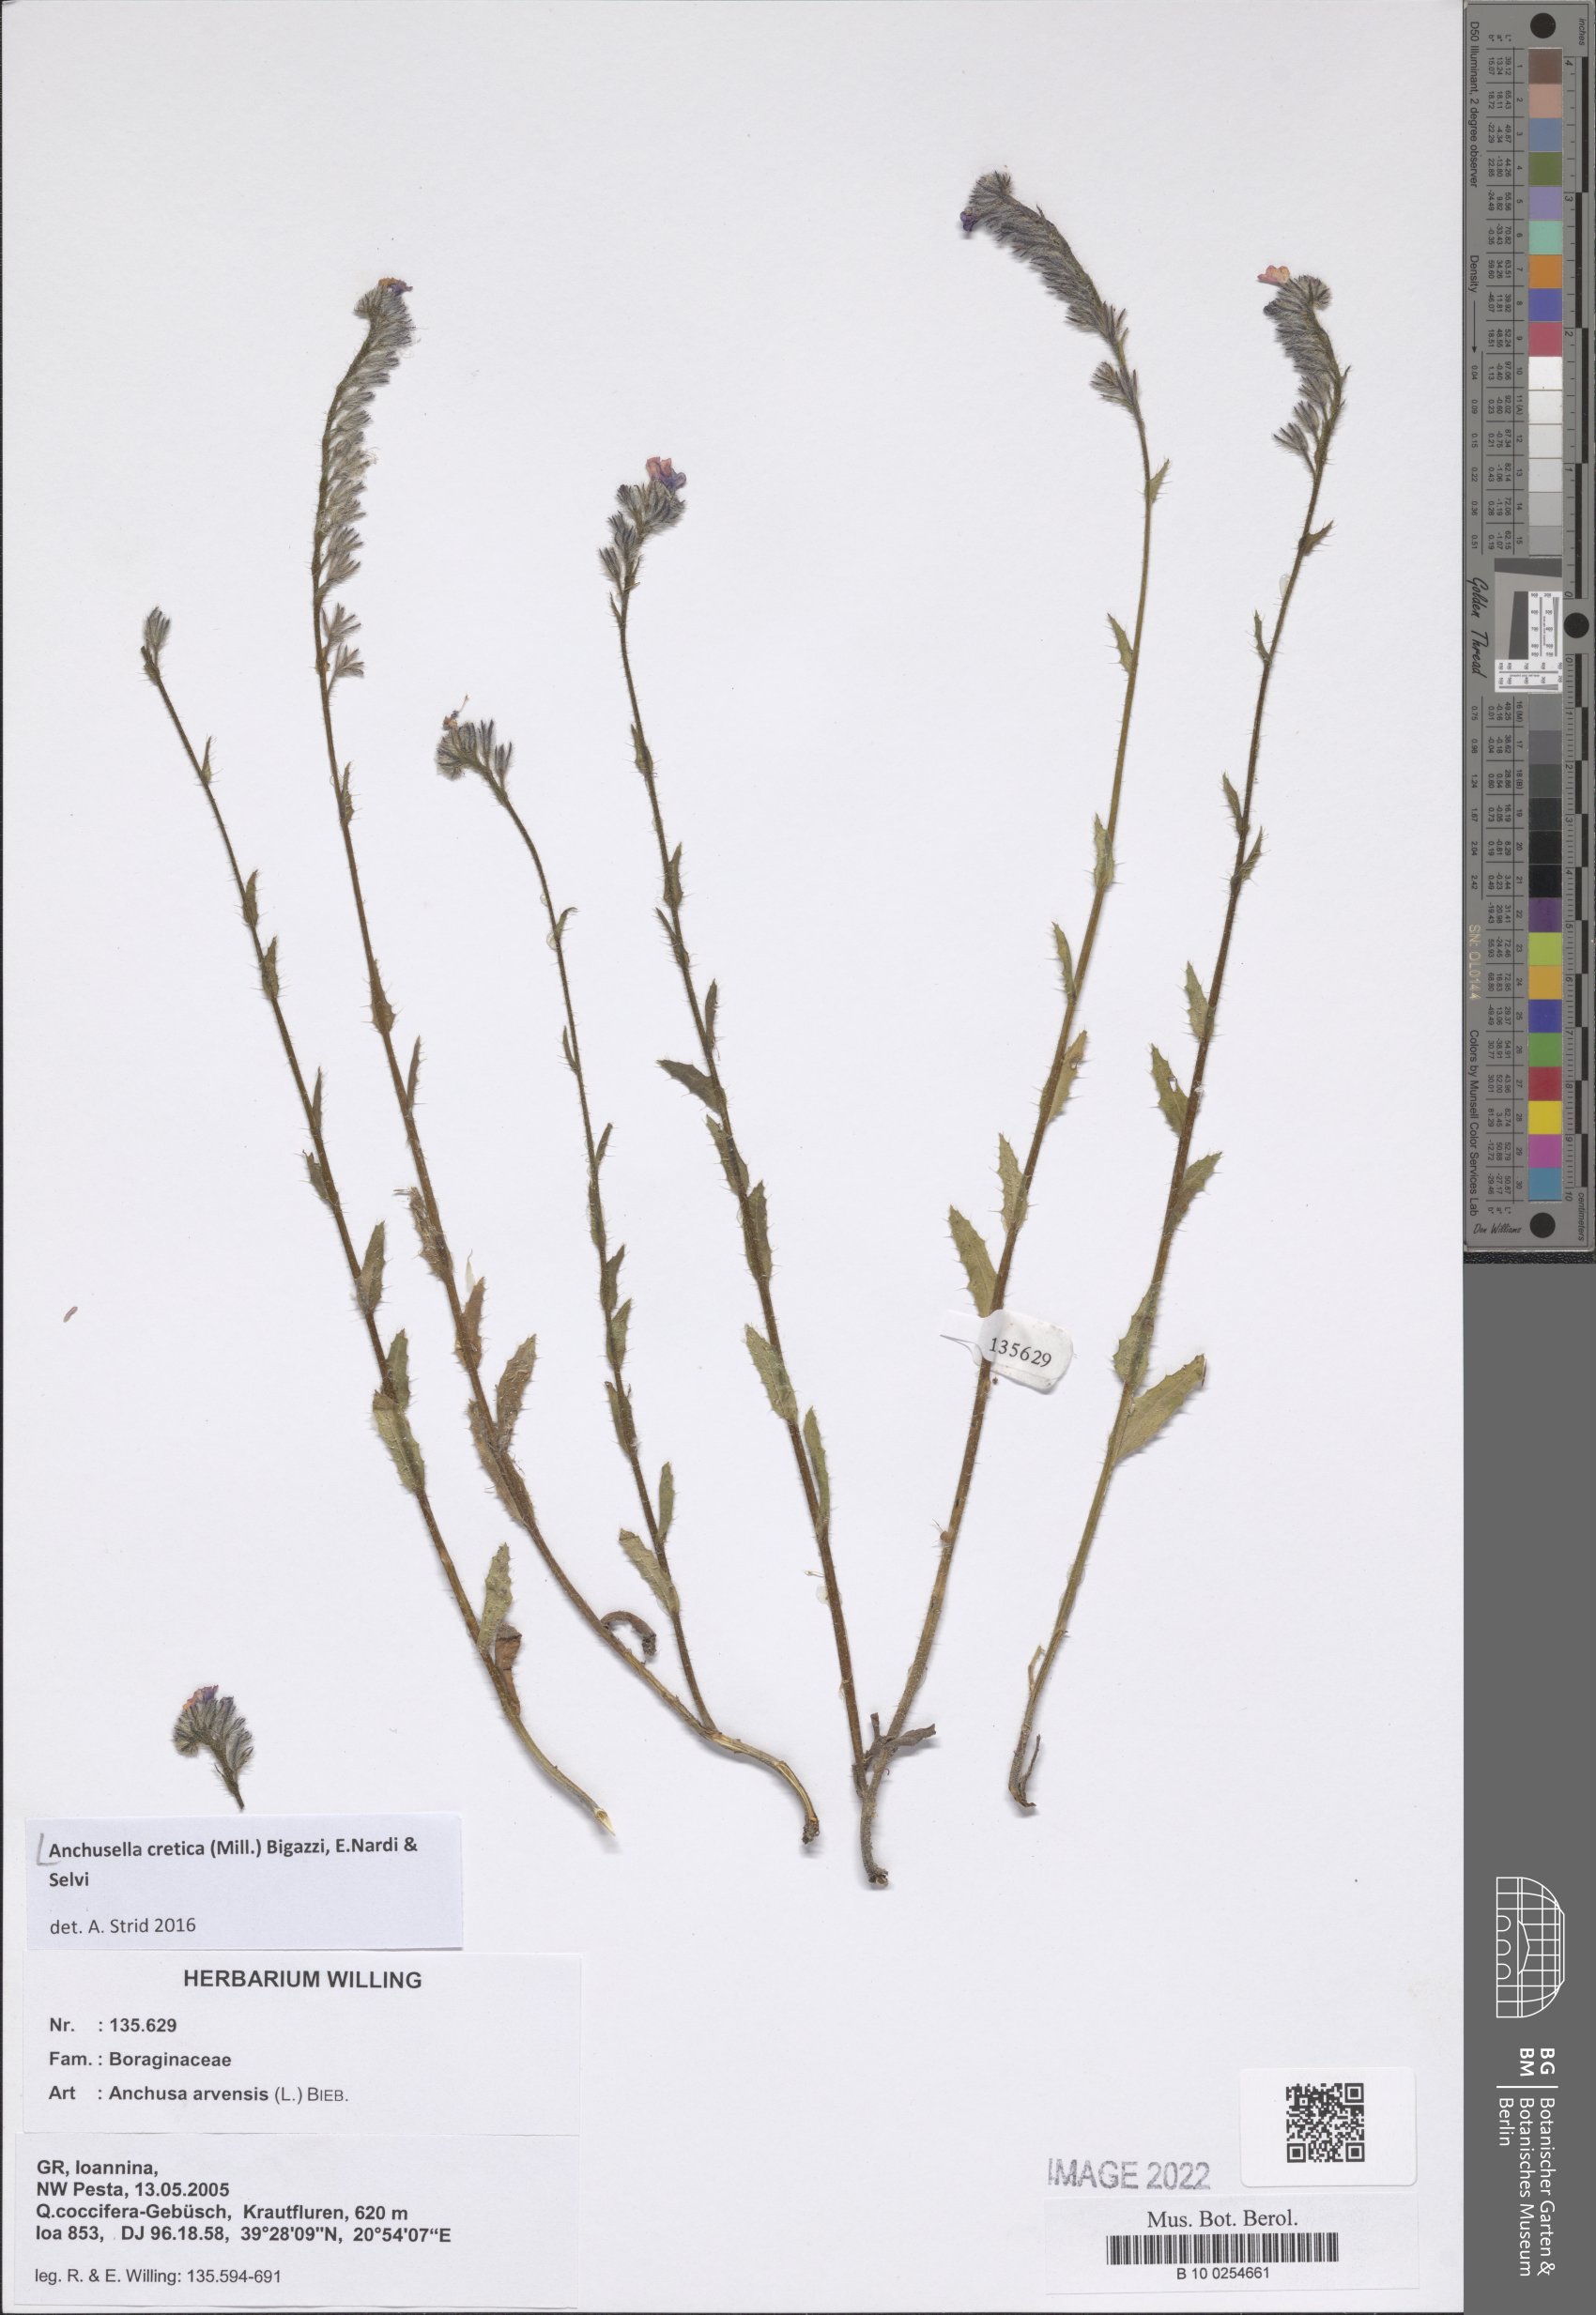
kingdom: Plantae
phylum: Tracheophyta
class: Magnoliopsida
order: Boraginales
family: Boraginaceae
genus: Anchusella
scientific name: Anchusella cretica
